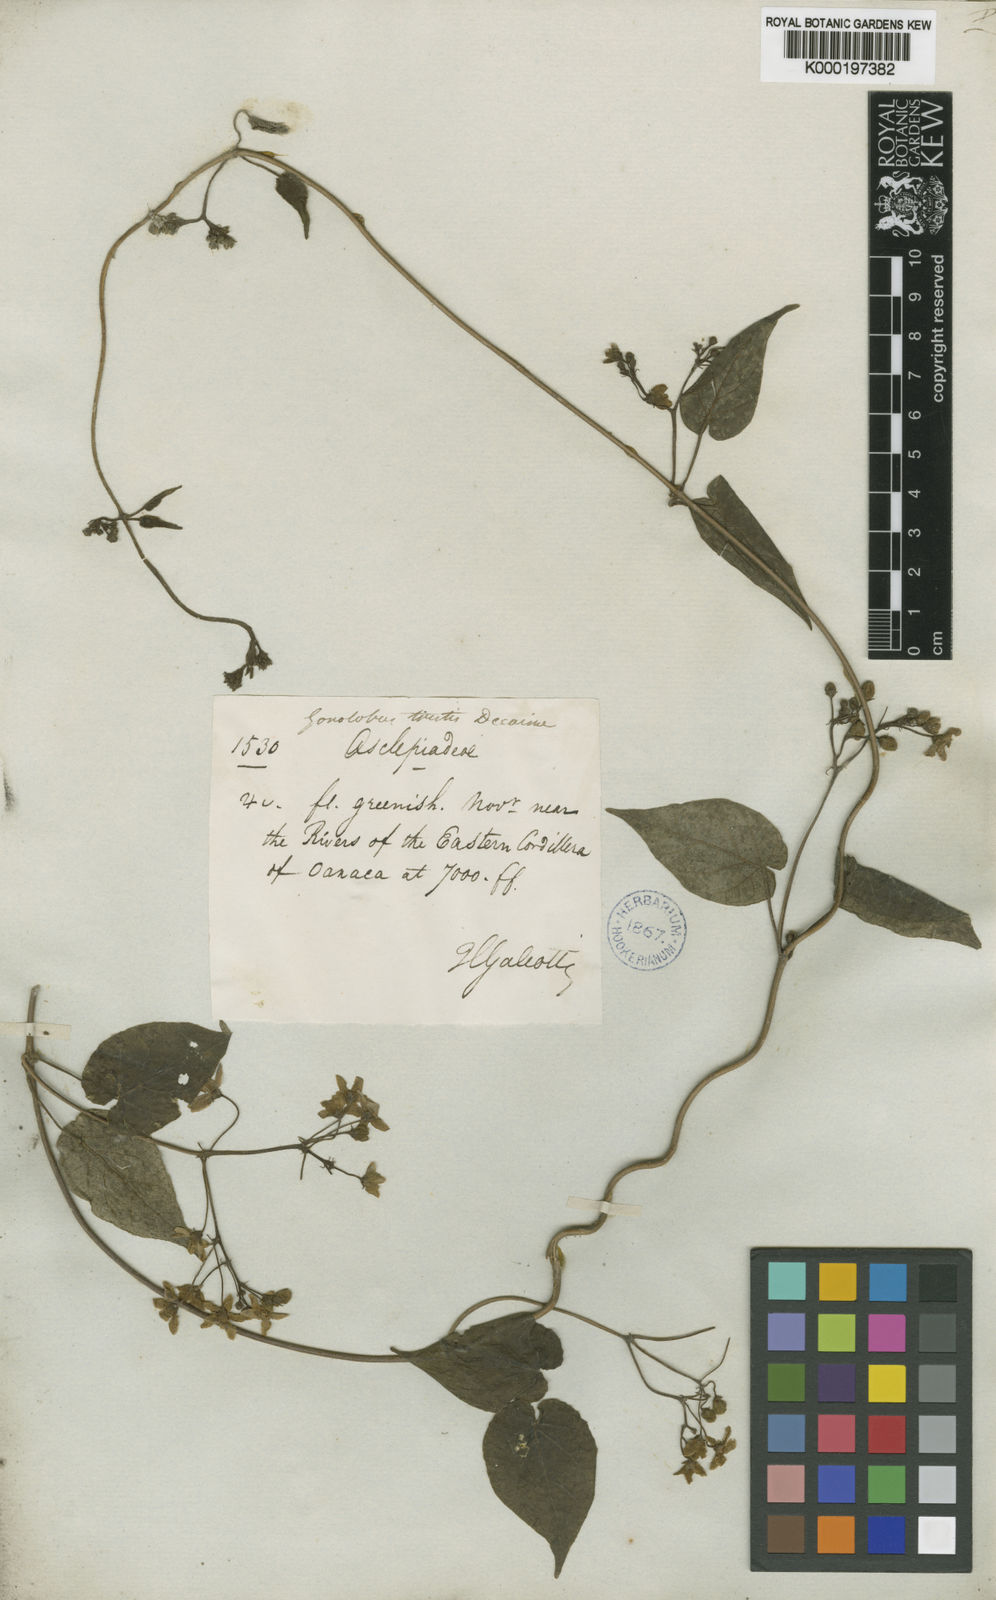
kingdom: Plantae
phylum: Tracheophyta
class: Magnoliopsida
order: Gentianales
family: Apocynaceae
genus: Matelea
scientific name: Matelea oaxacana
